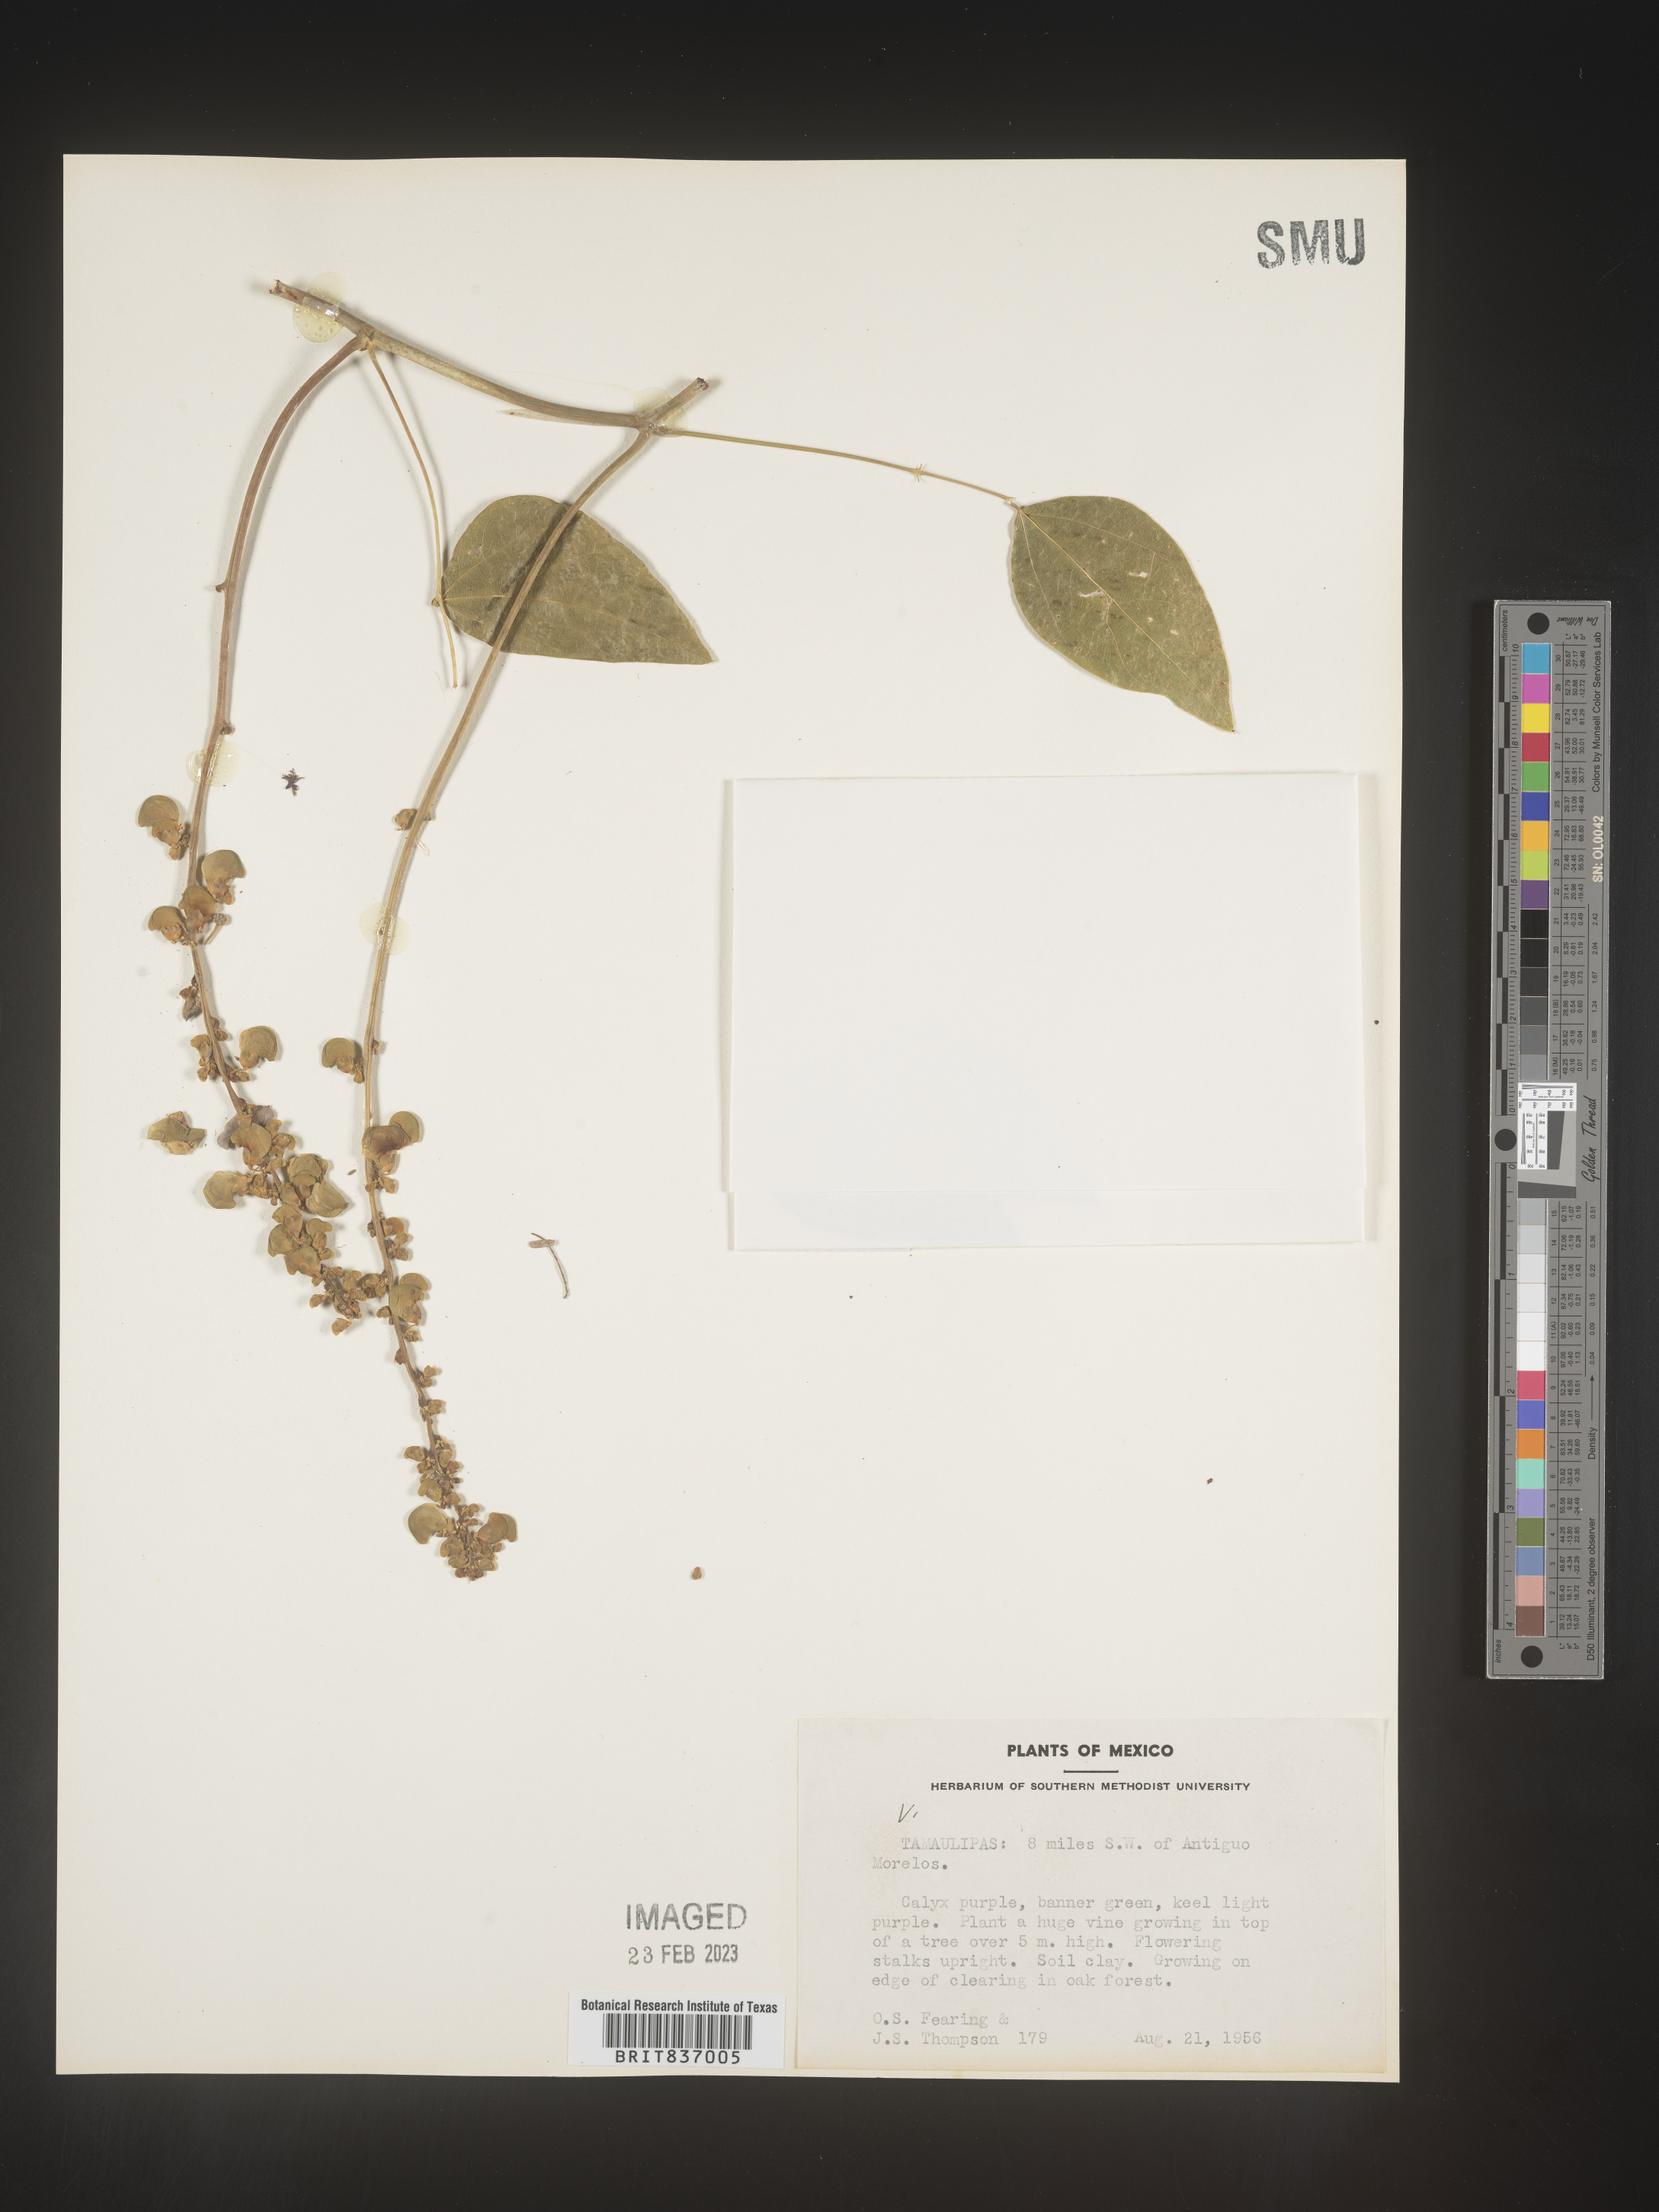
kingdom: Plantae
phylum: Tracheophyta
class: Magnoliopsida
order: Fabales
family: Fabaceae
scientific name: Fabaceae
